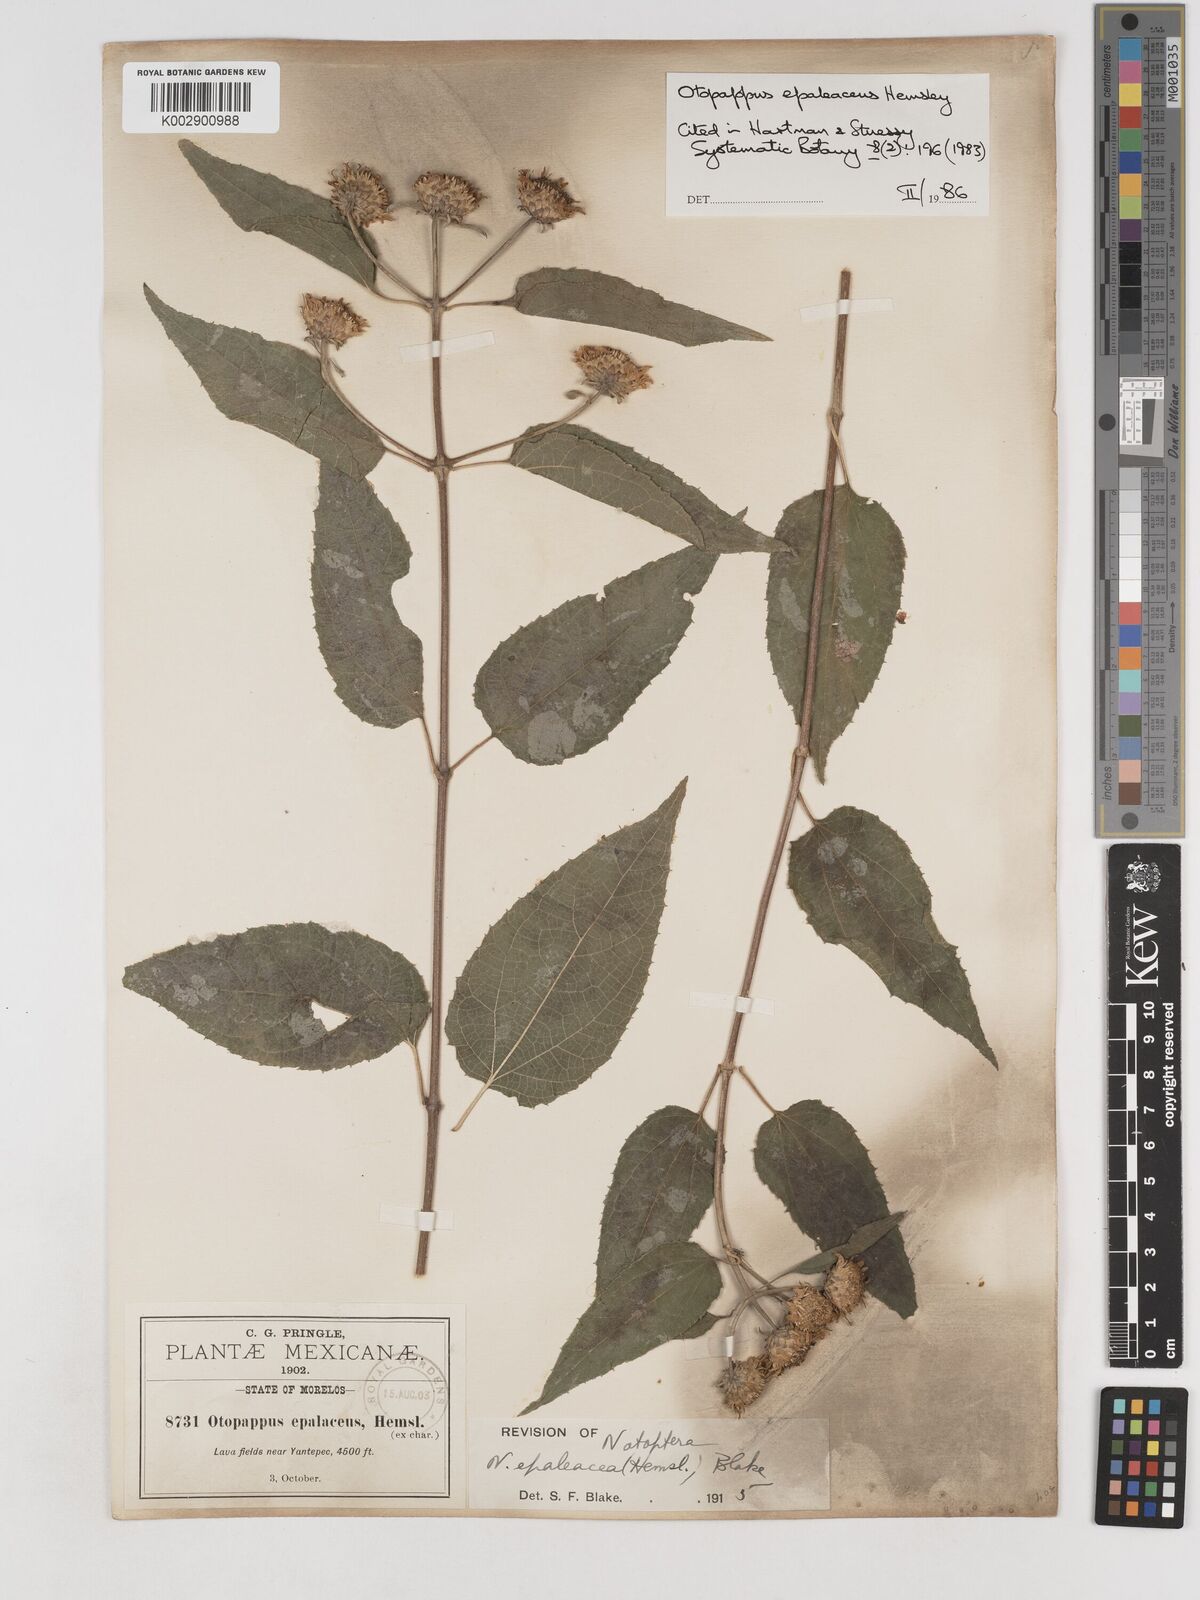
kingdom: Plantae
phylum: Tracheophyta
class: Magnoliopsida
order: Asterales
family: Asteraceae
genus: Otopappus
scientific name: Otopappus epaleaceus
